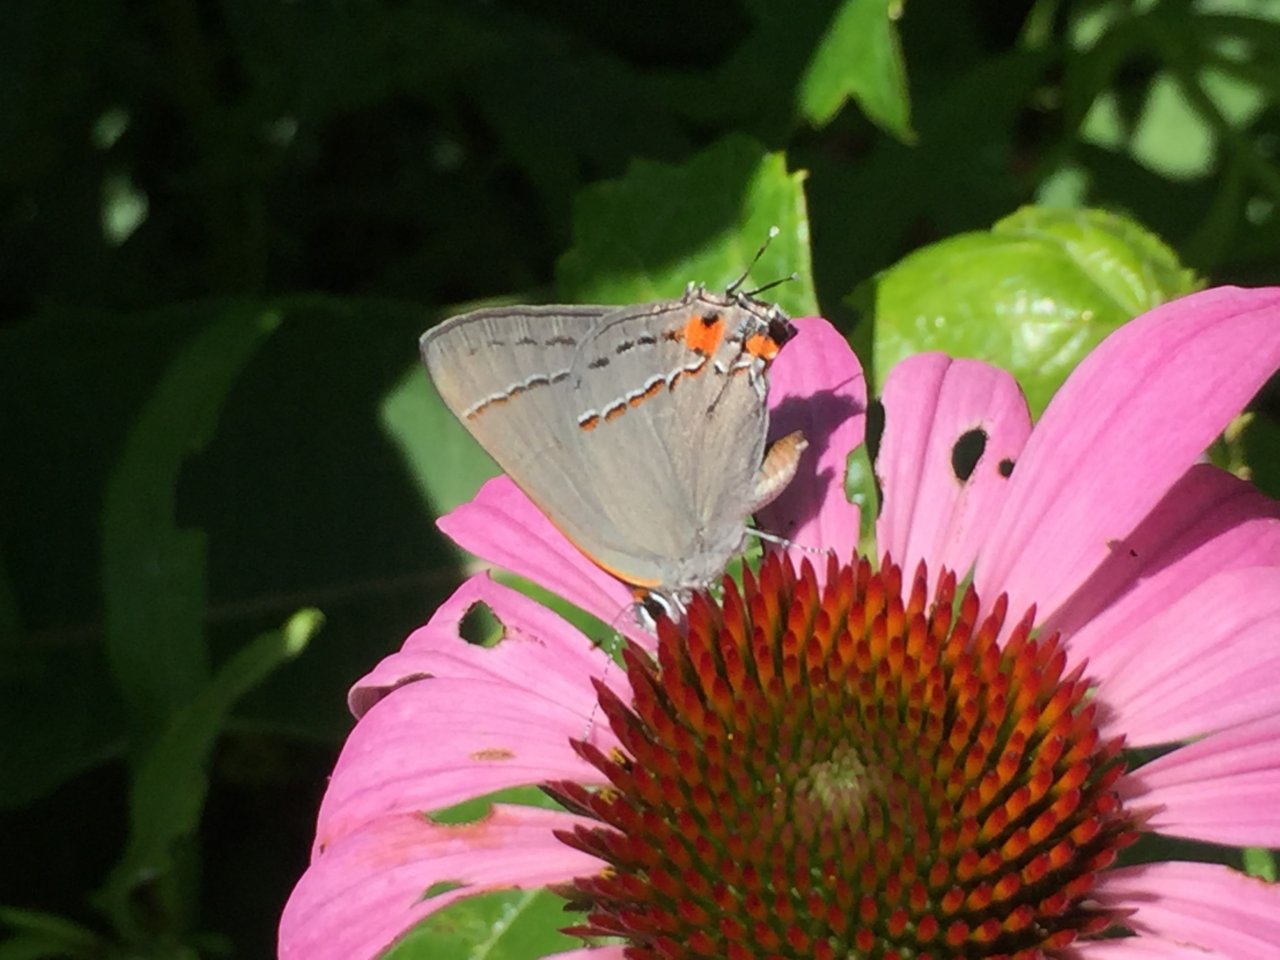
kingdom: Animalia
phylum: Arthropoda
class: Insecta
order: Lepidoptera
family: Lycaenidae
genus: Strymon
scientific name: Strymon melinus
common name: Gray Hairstreak
